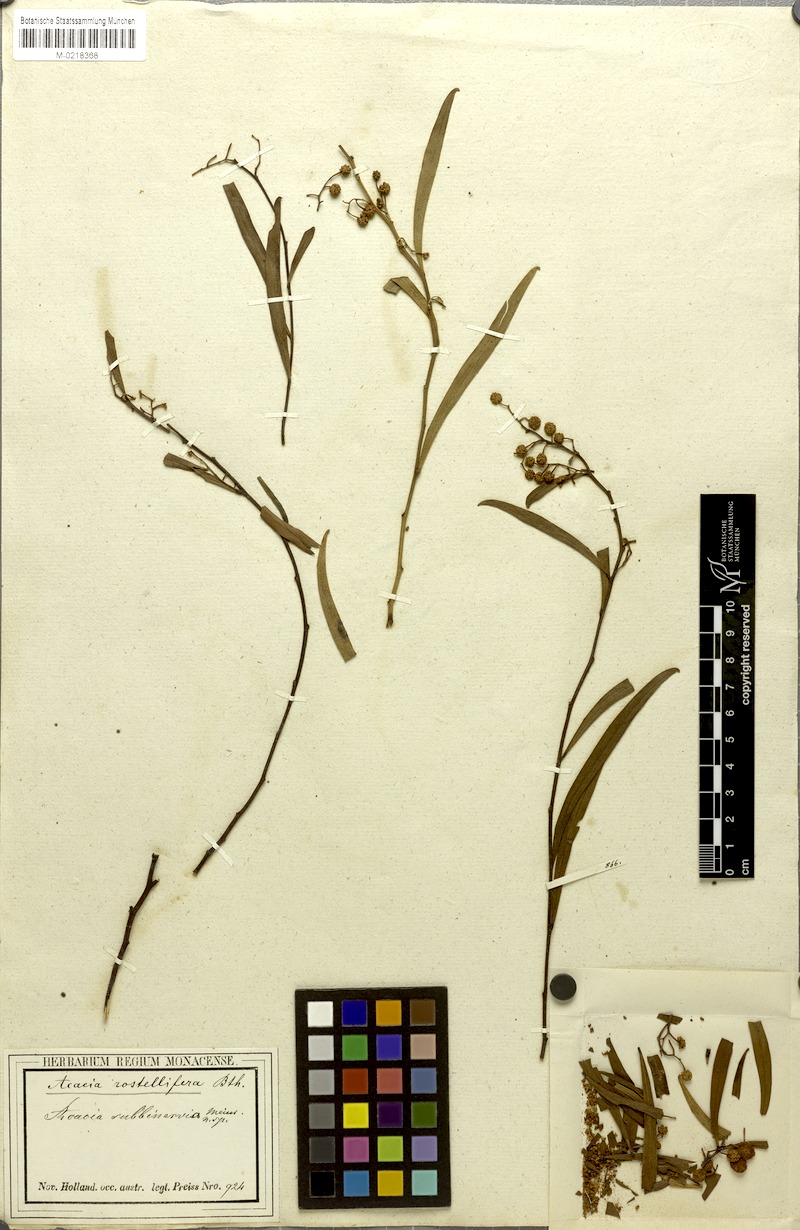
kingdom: Plantae
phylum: Tracheophyta
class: Magnoliopsida
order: Fabales
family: Fabaceae
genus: Acacia
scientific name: Acacia rostellifera
